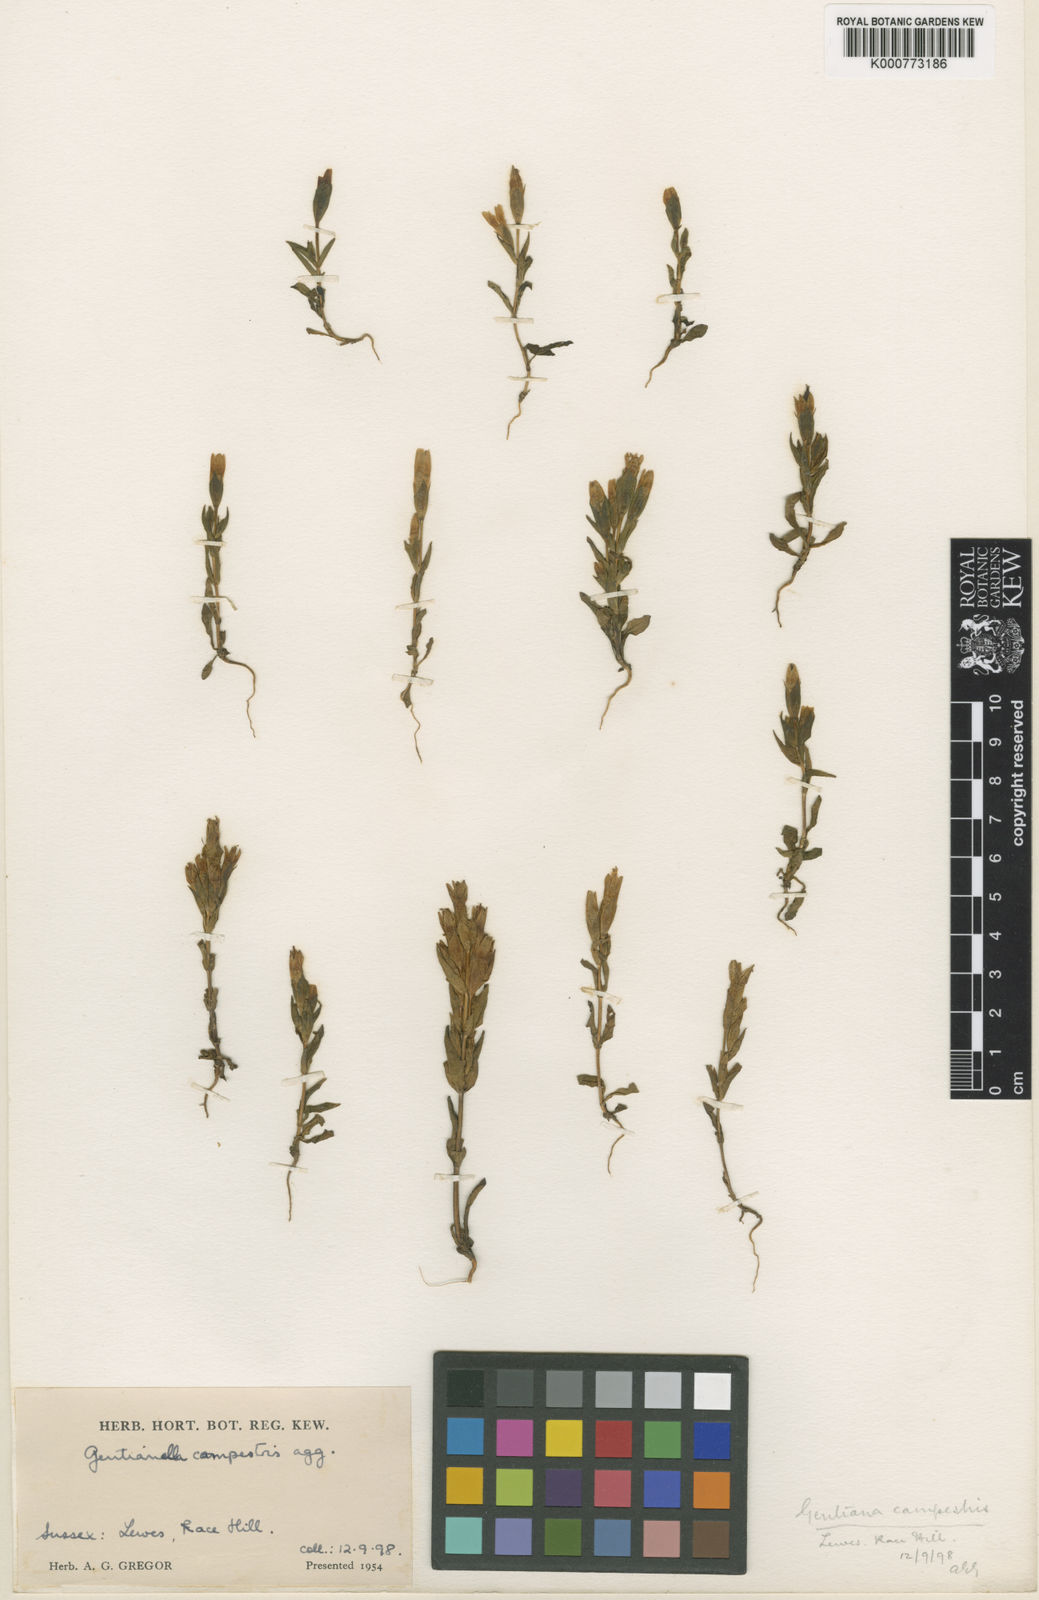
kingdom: Plantae
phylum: Tracheophyta
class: Magnoliopsida
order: Gentianales
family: Gentianaceae
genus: Gentianella
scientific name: Gentianella
